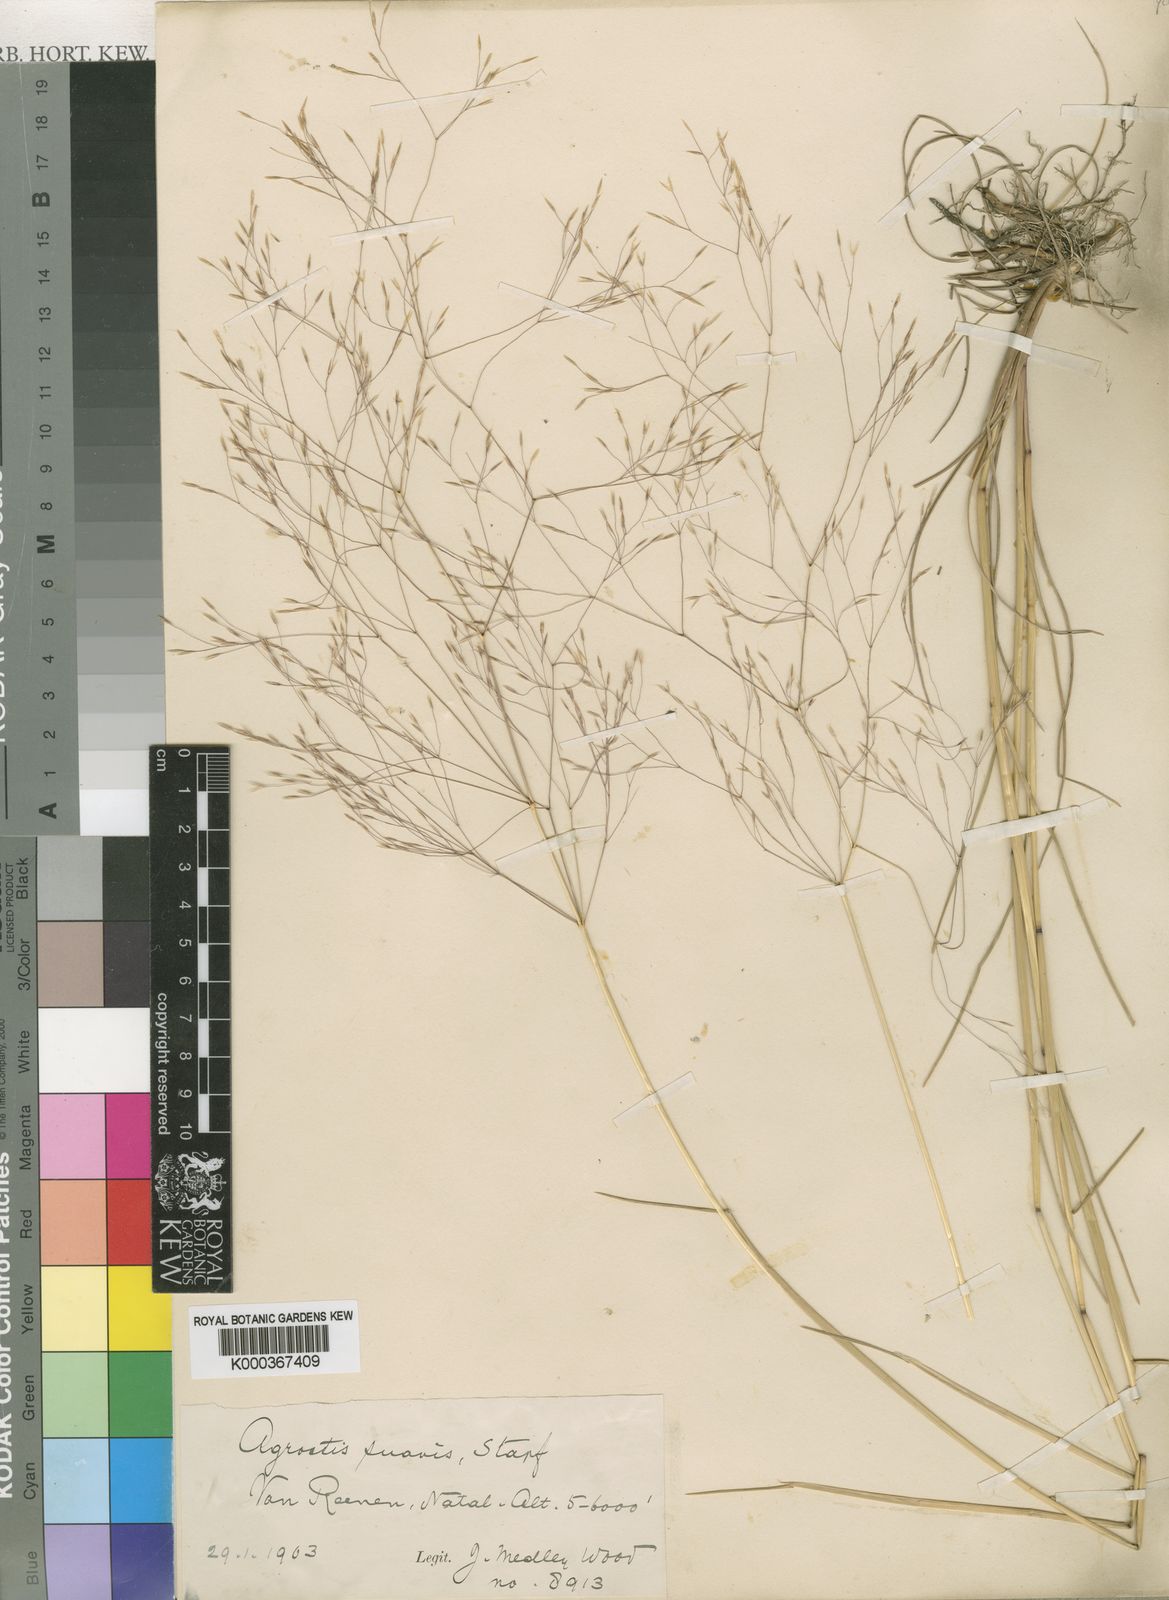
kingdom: Plantae
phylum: Tracheophyta
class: Liliopsida
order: Poales
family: Poaceae
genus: Lachnagrostis
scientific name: Lachnagrostis eriantha
